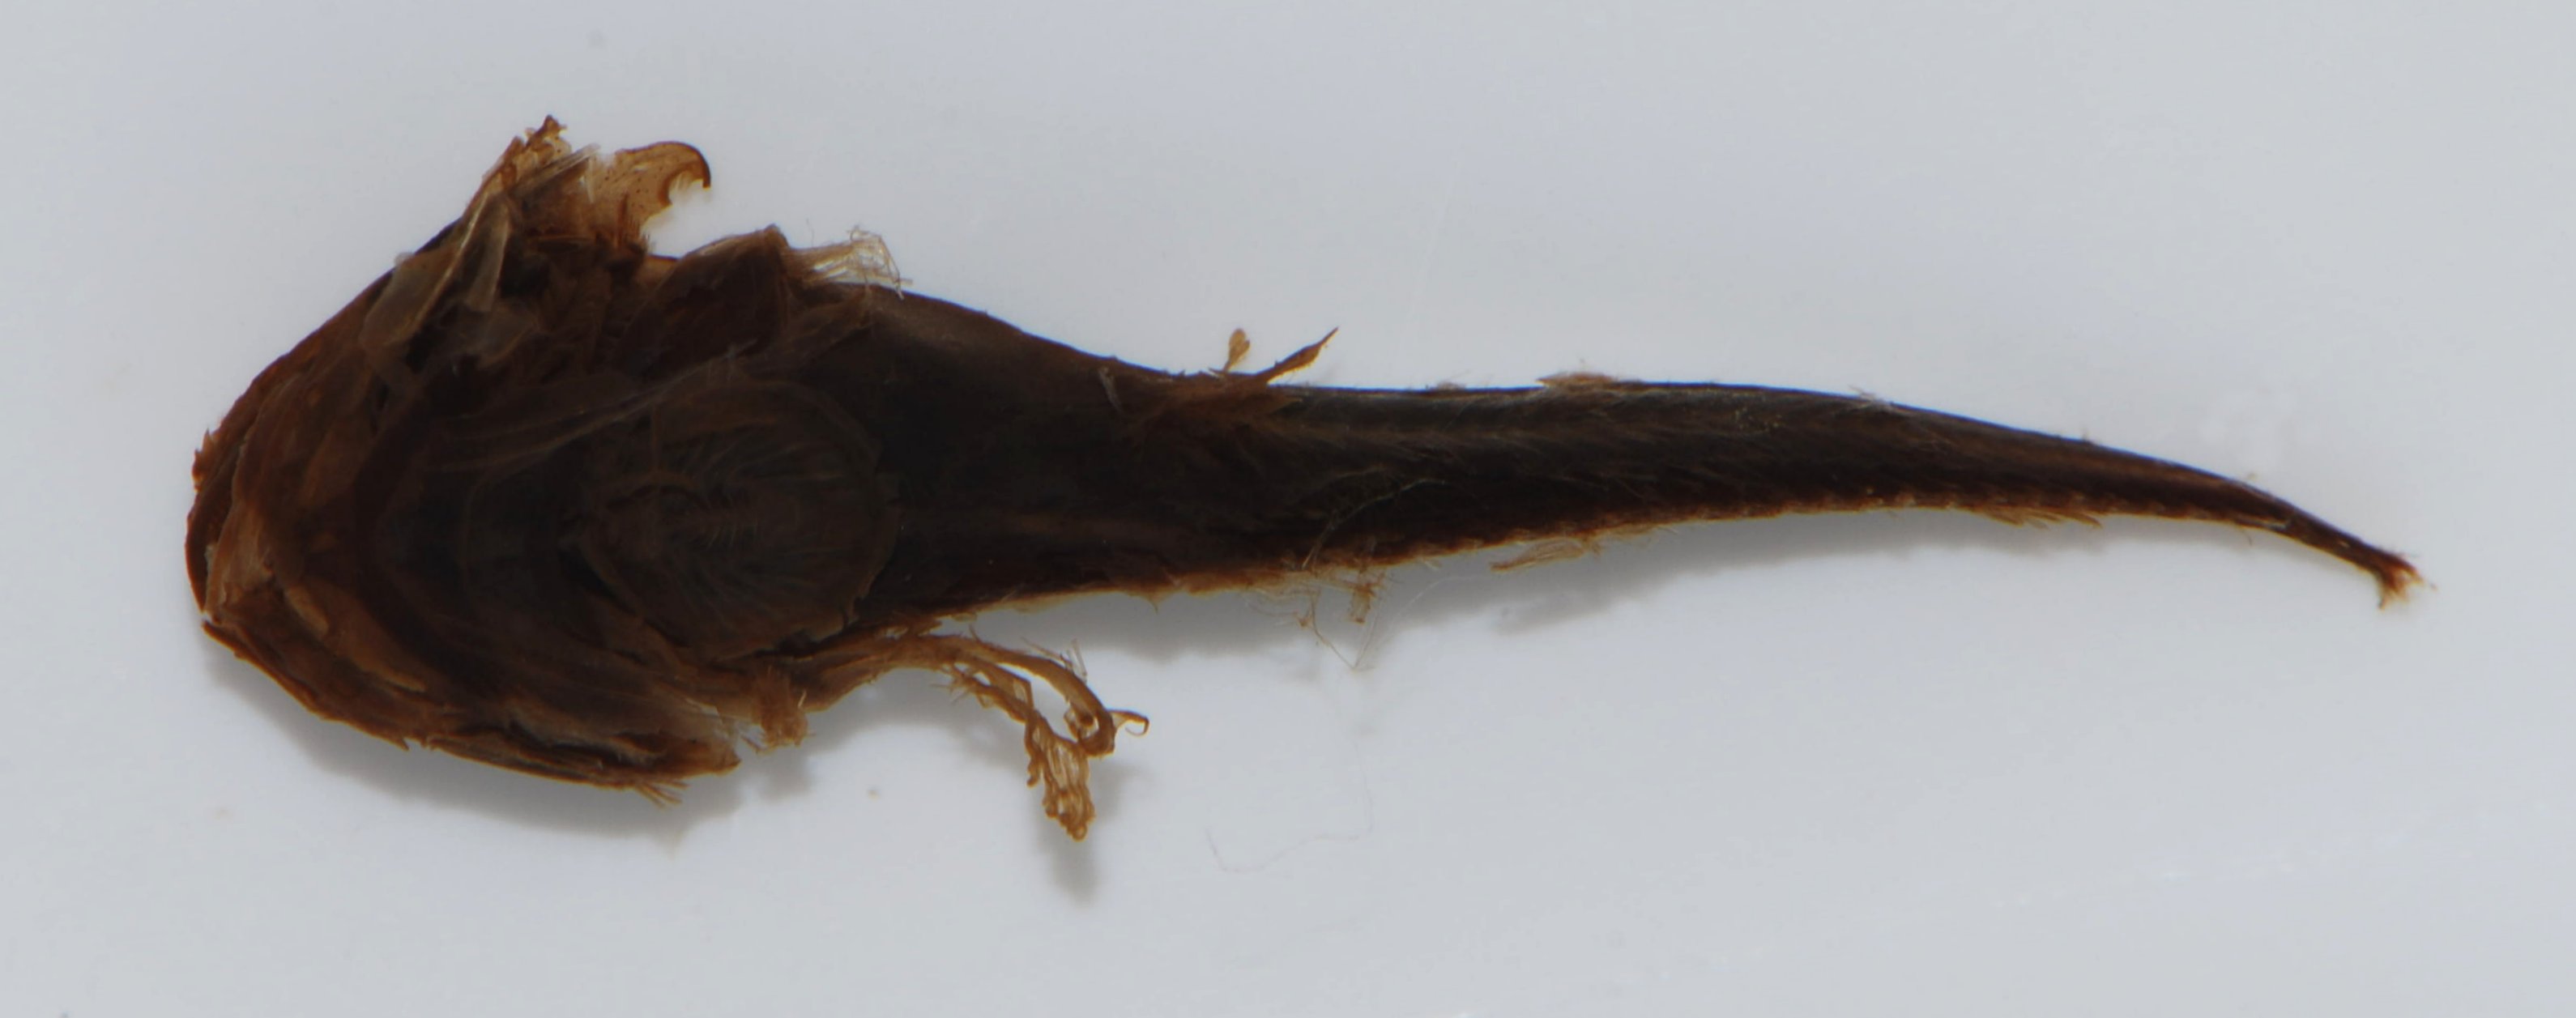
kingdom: Animalia
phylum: Chordata
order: Scorpaeniformes
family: Liparidae
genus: Liparis
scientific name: Liparis fishelsoni
